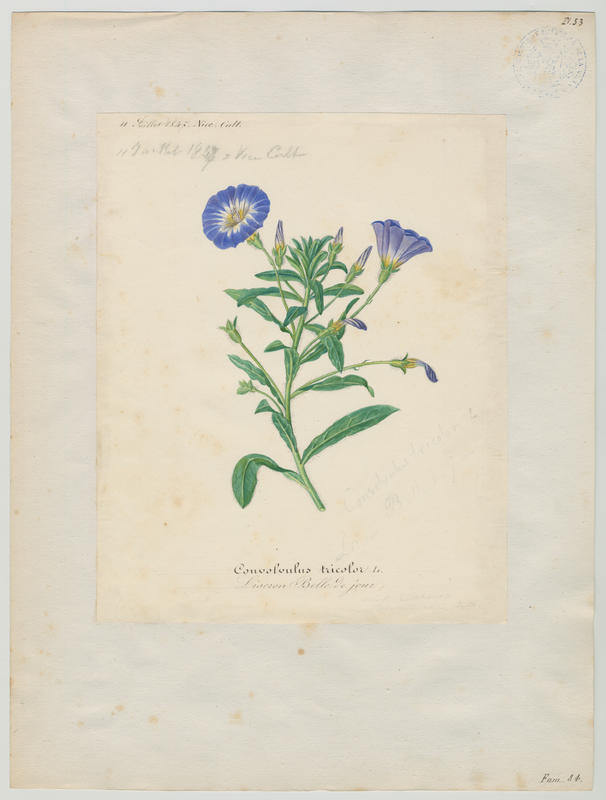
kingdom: Plantae
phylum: Tracheophyta
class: Magnoliopsida
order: Solanales
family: Convolvulaceae
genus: Convolvulus
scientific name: Convolvulus tricolor
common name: Dwarf morning-glory
